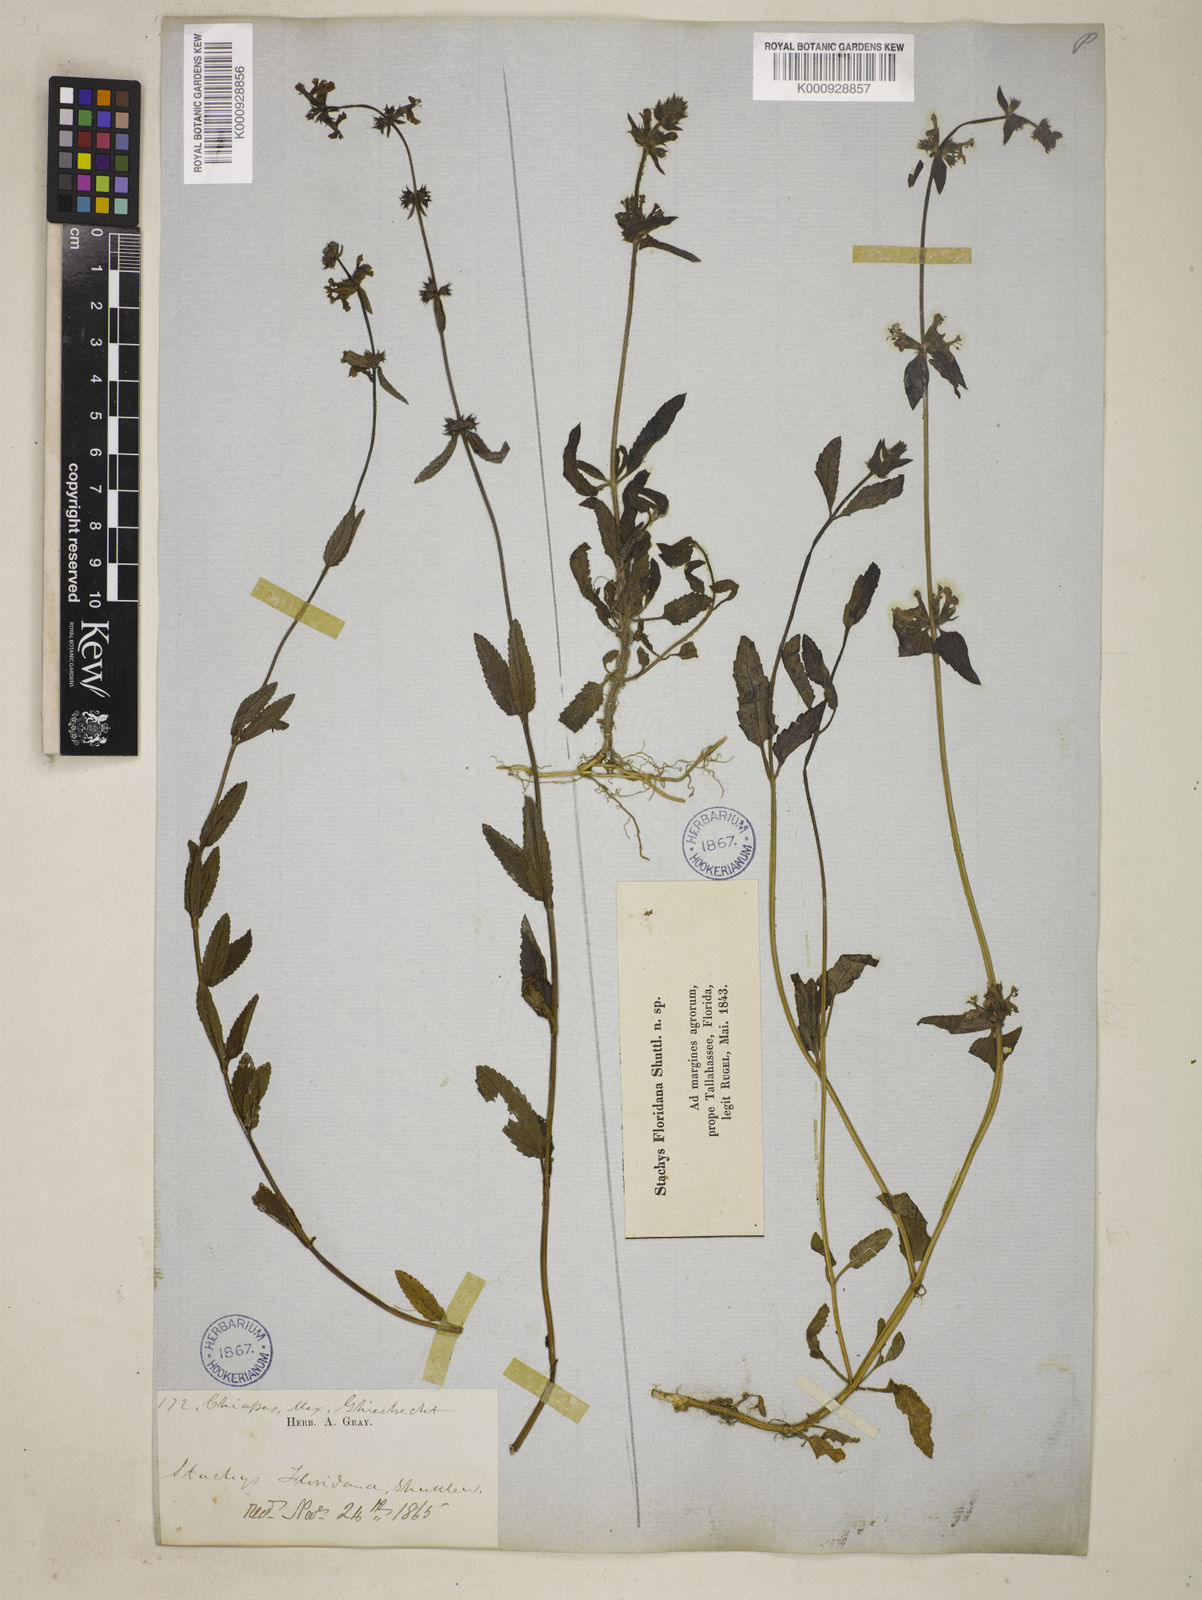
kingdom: Plantae
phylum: Tracheophyta
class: Magnoliopsida
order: Lamiales
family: Lamiaceae
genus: Stachys
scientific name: Stachys floridana
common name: Florida betony
